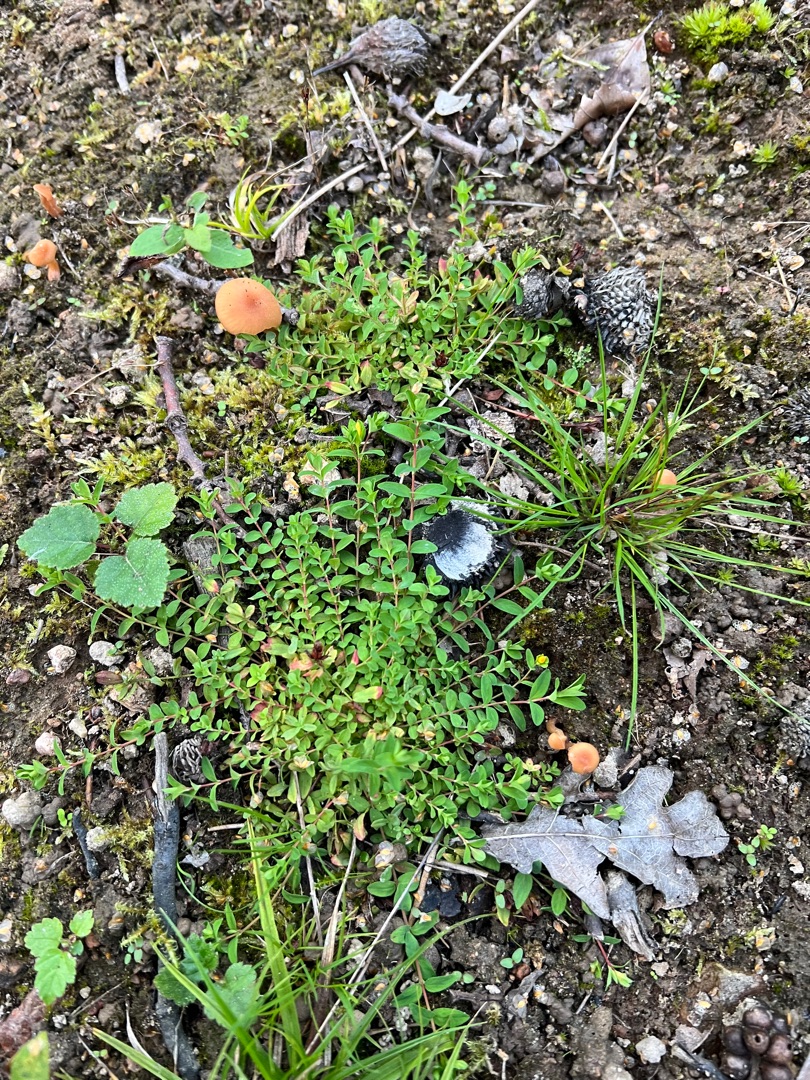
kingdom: Plantae
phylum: Tracheophyta
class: Magnoliopsida
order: Malpighiales
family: Hypericaceae
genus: Hypericum
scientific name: Hypericum humifusum
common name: Dværg-perikon
